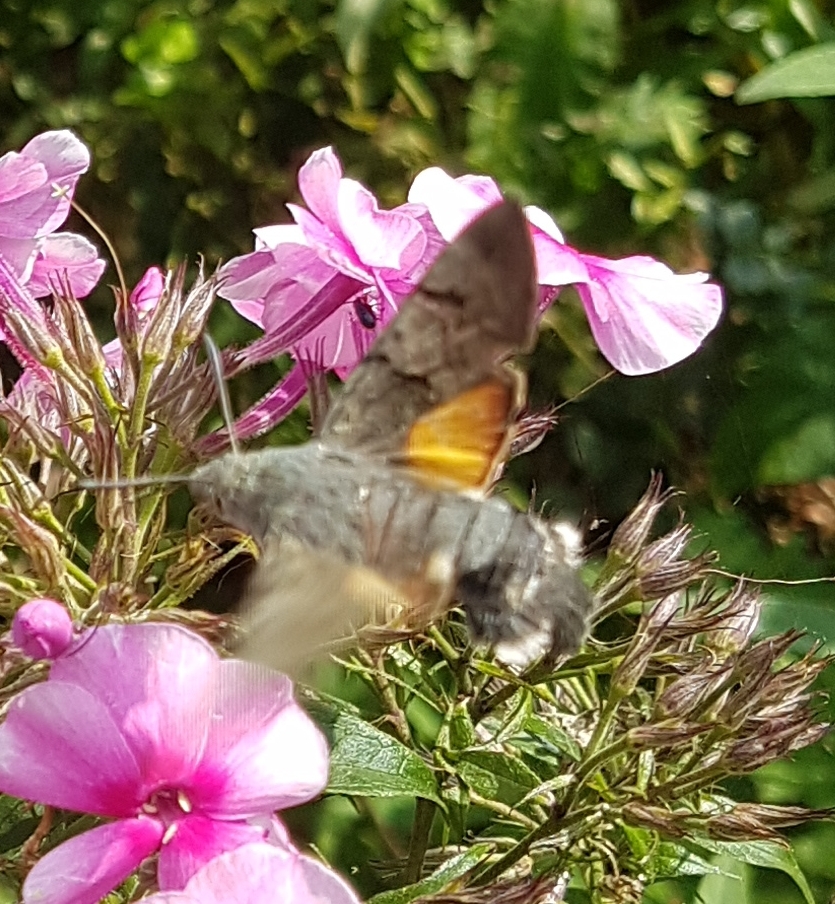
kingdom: Animalia
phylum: Arthropoda
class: Insecta
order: Lepidoptera
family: Sphingidae
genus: Macroglossum
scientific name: Macroglossum stellatarum
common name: Duehale
